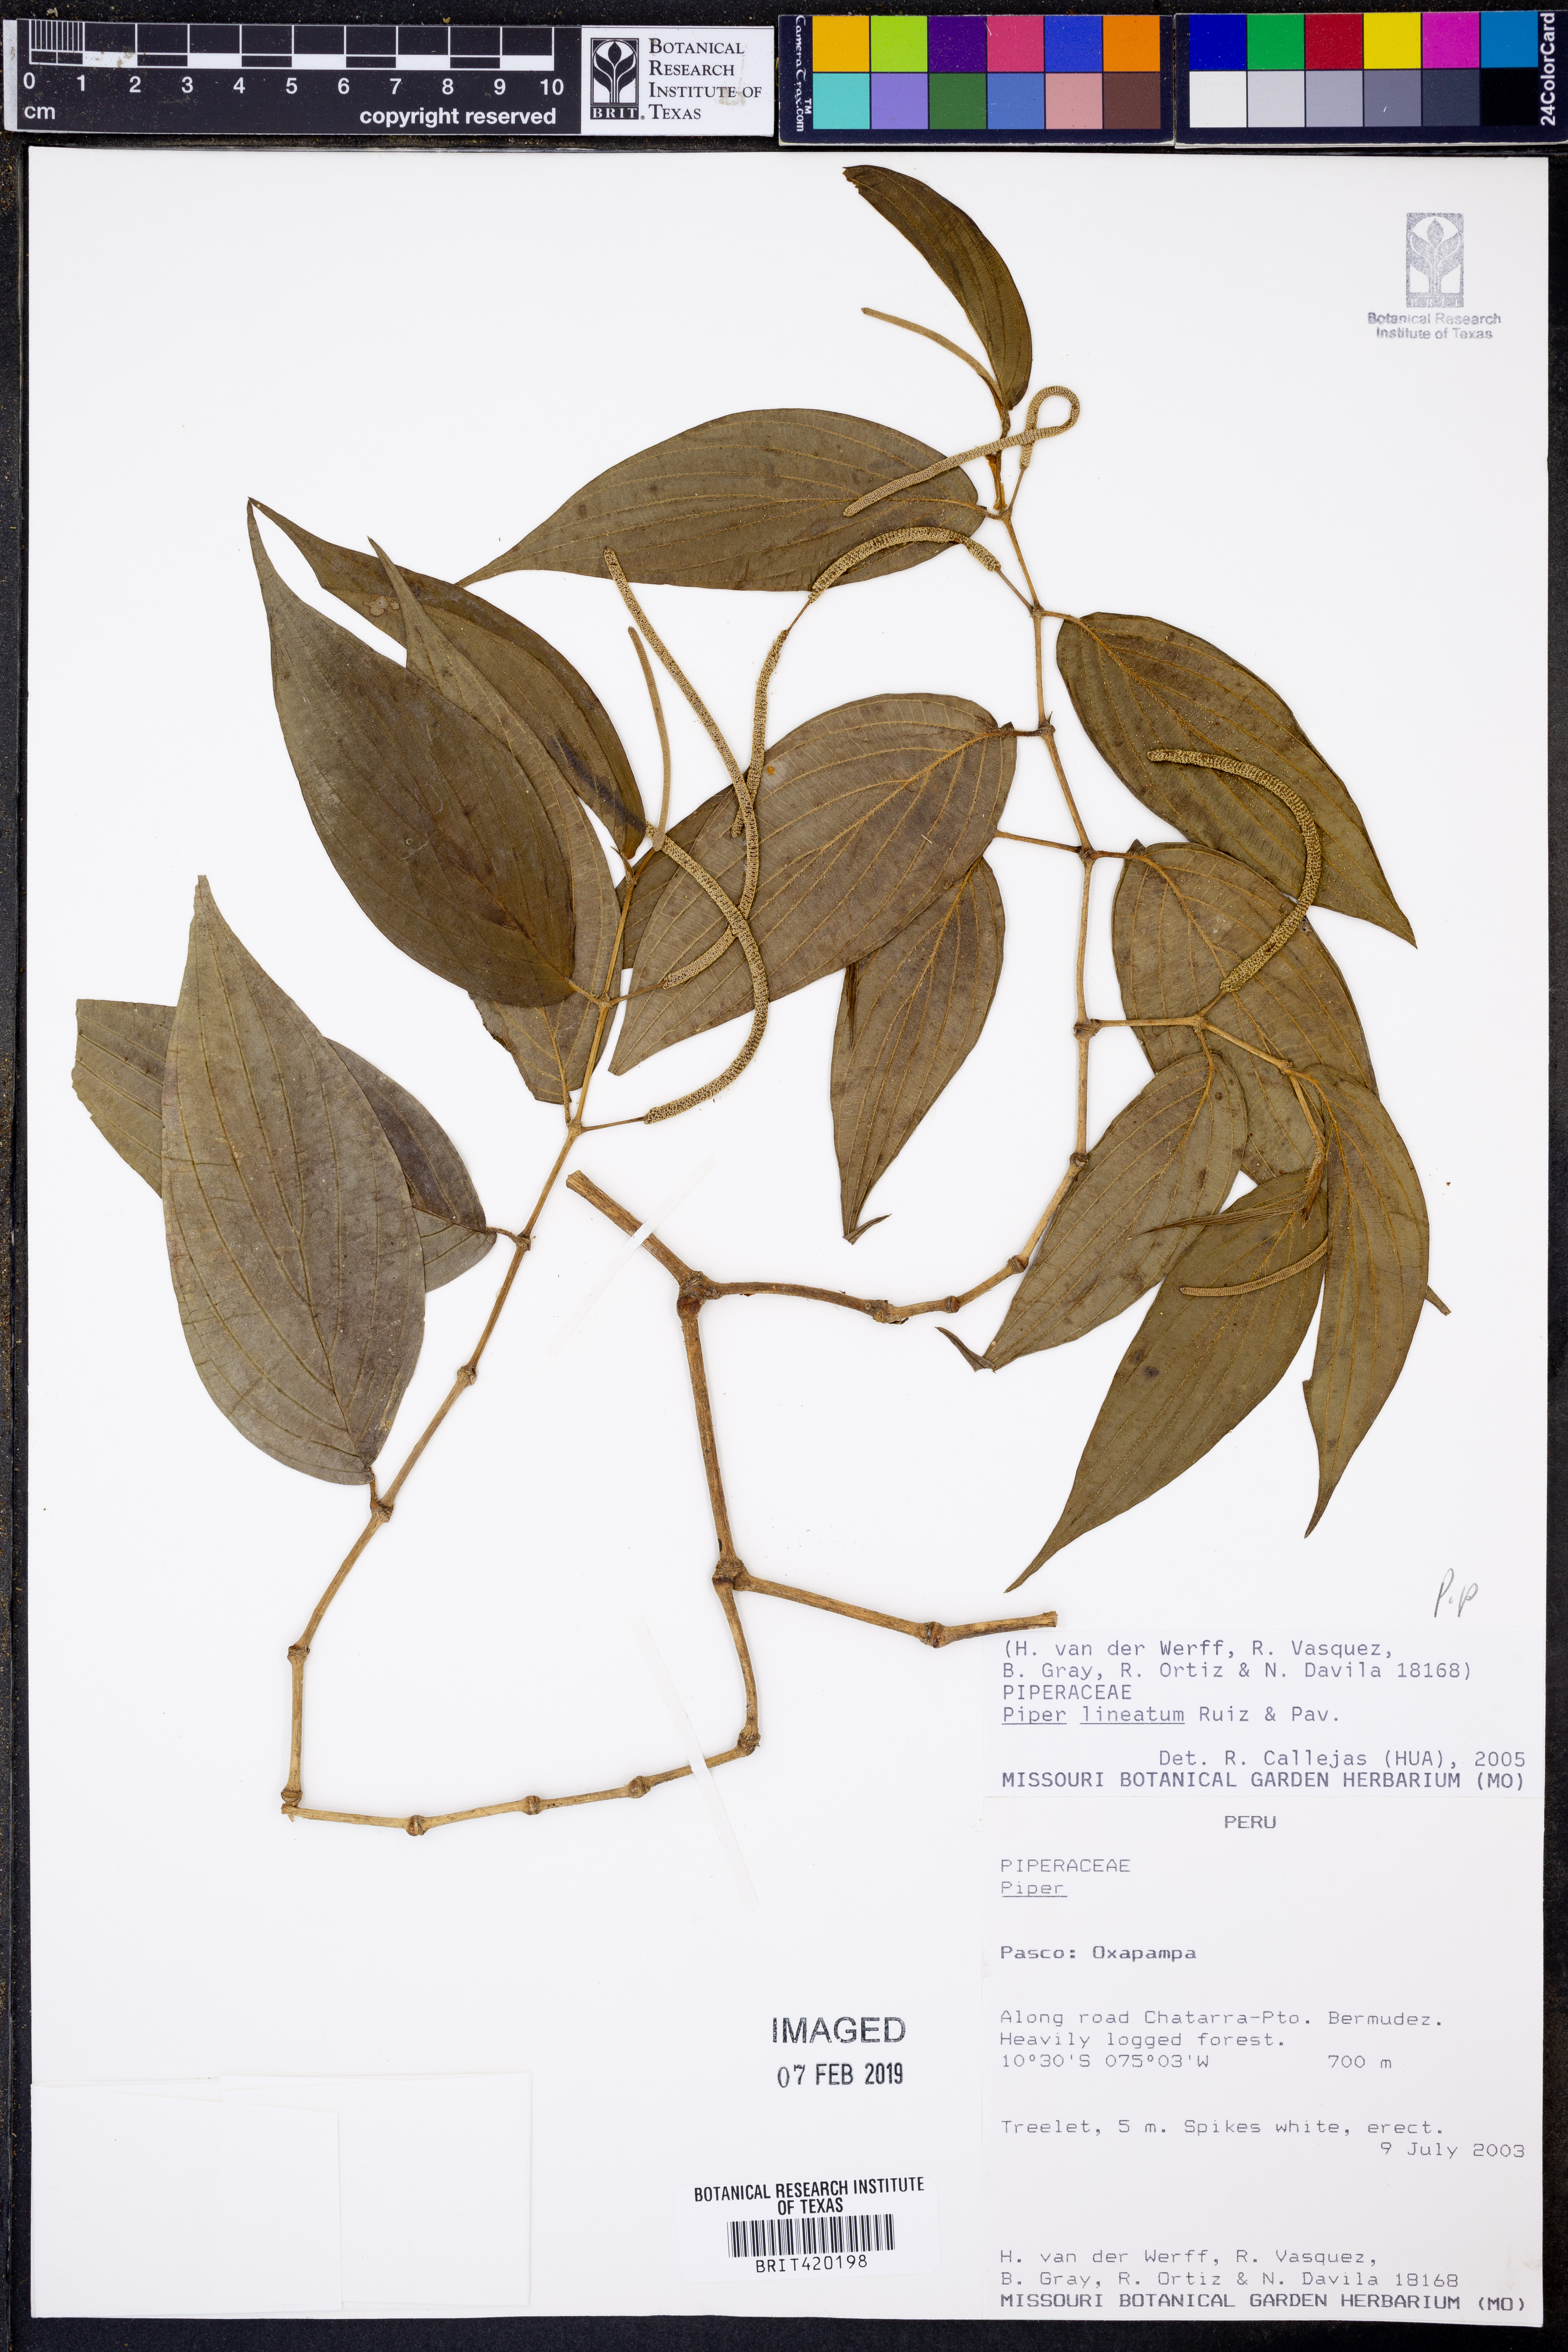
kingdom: Plantae
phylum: Tracheophyta
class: Magnoliopsida
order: Piperales
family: Piperaceae
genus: Piper
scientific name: Piper lineatum
